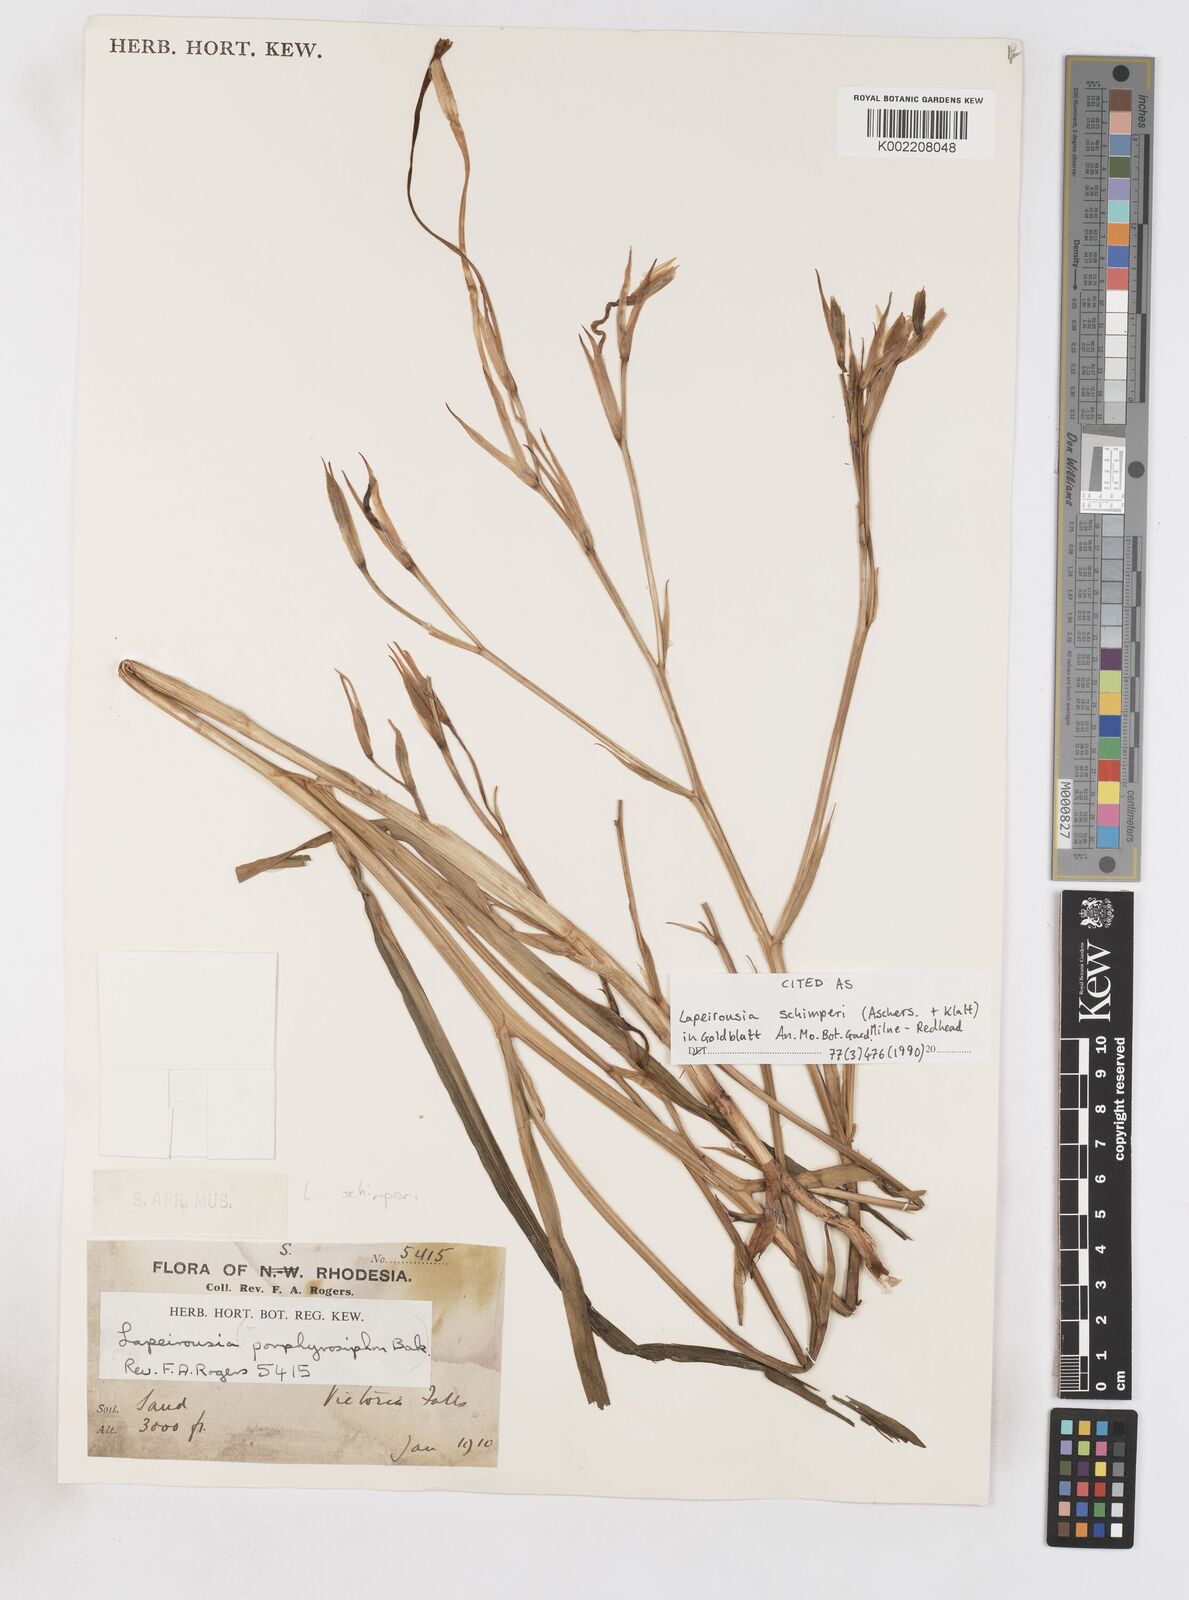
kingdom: Plantae
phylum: Tracheophyta
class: Liliopsida
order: Asparagales
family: Iridaceae
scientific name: Iridaceae
